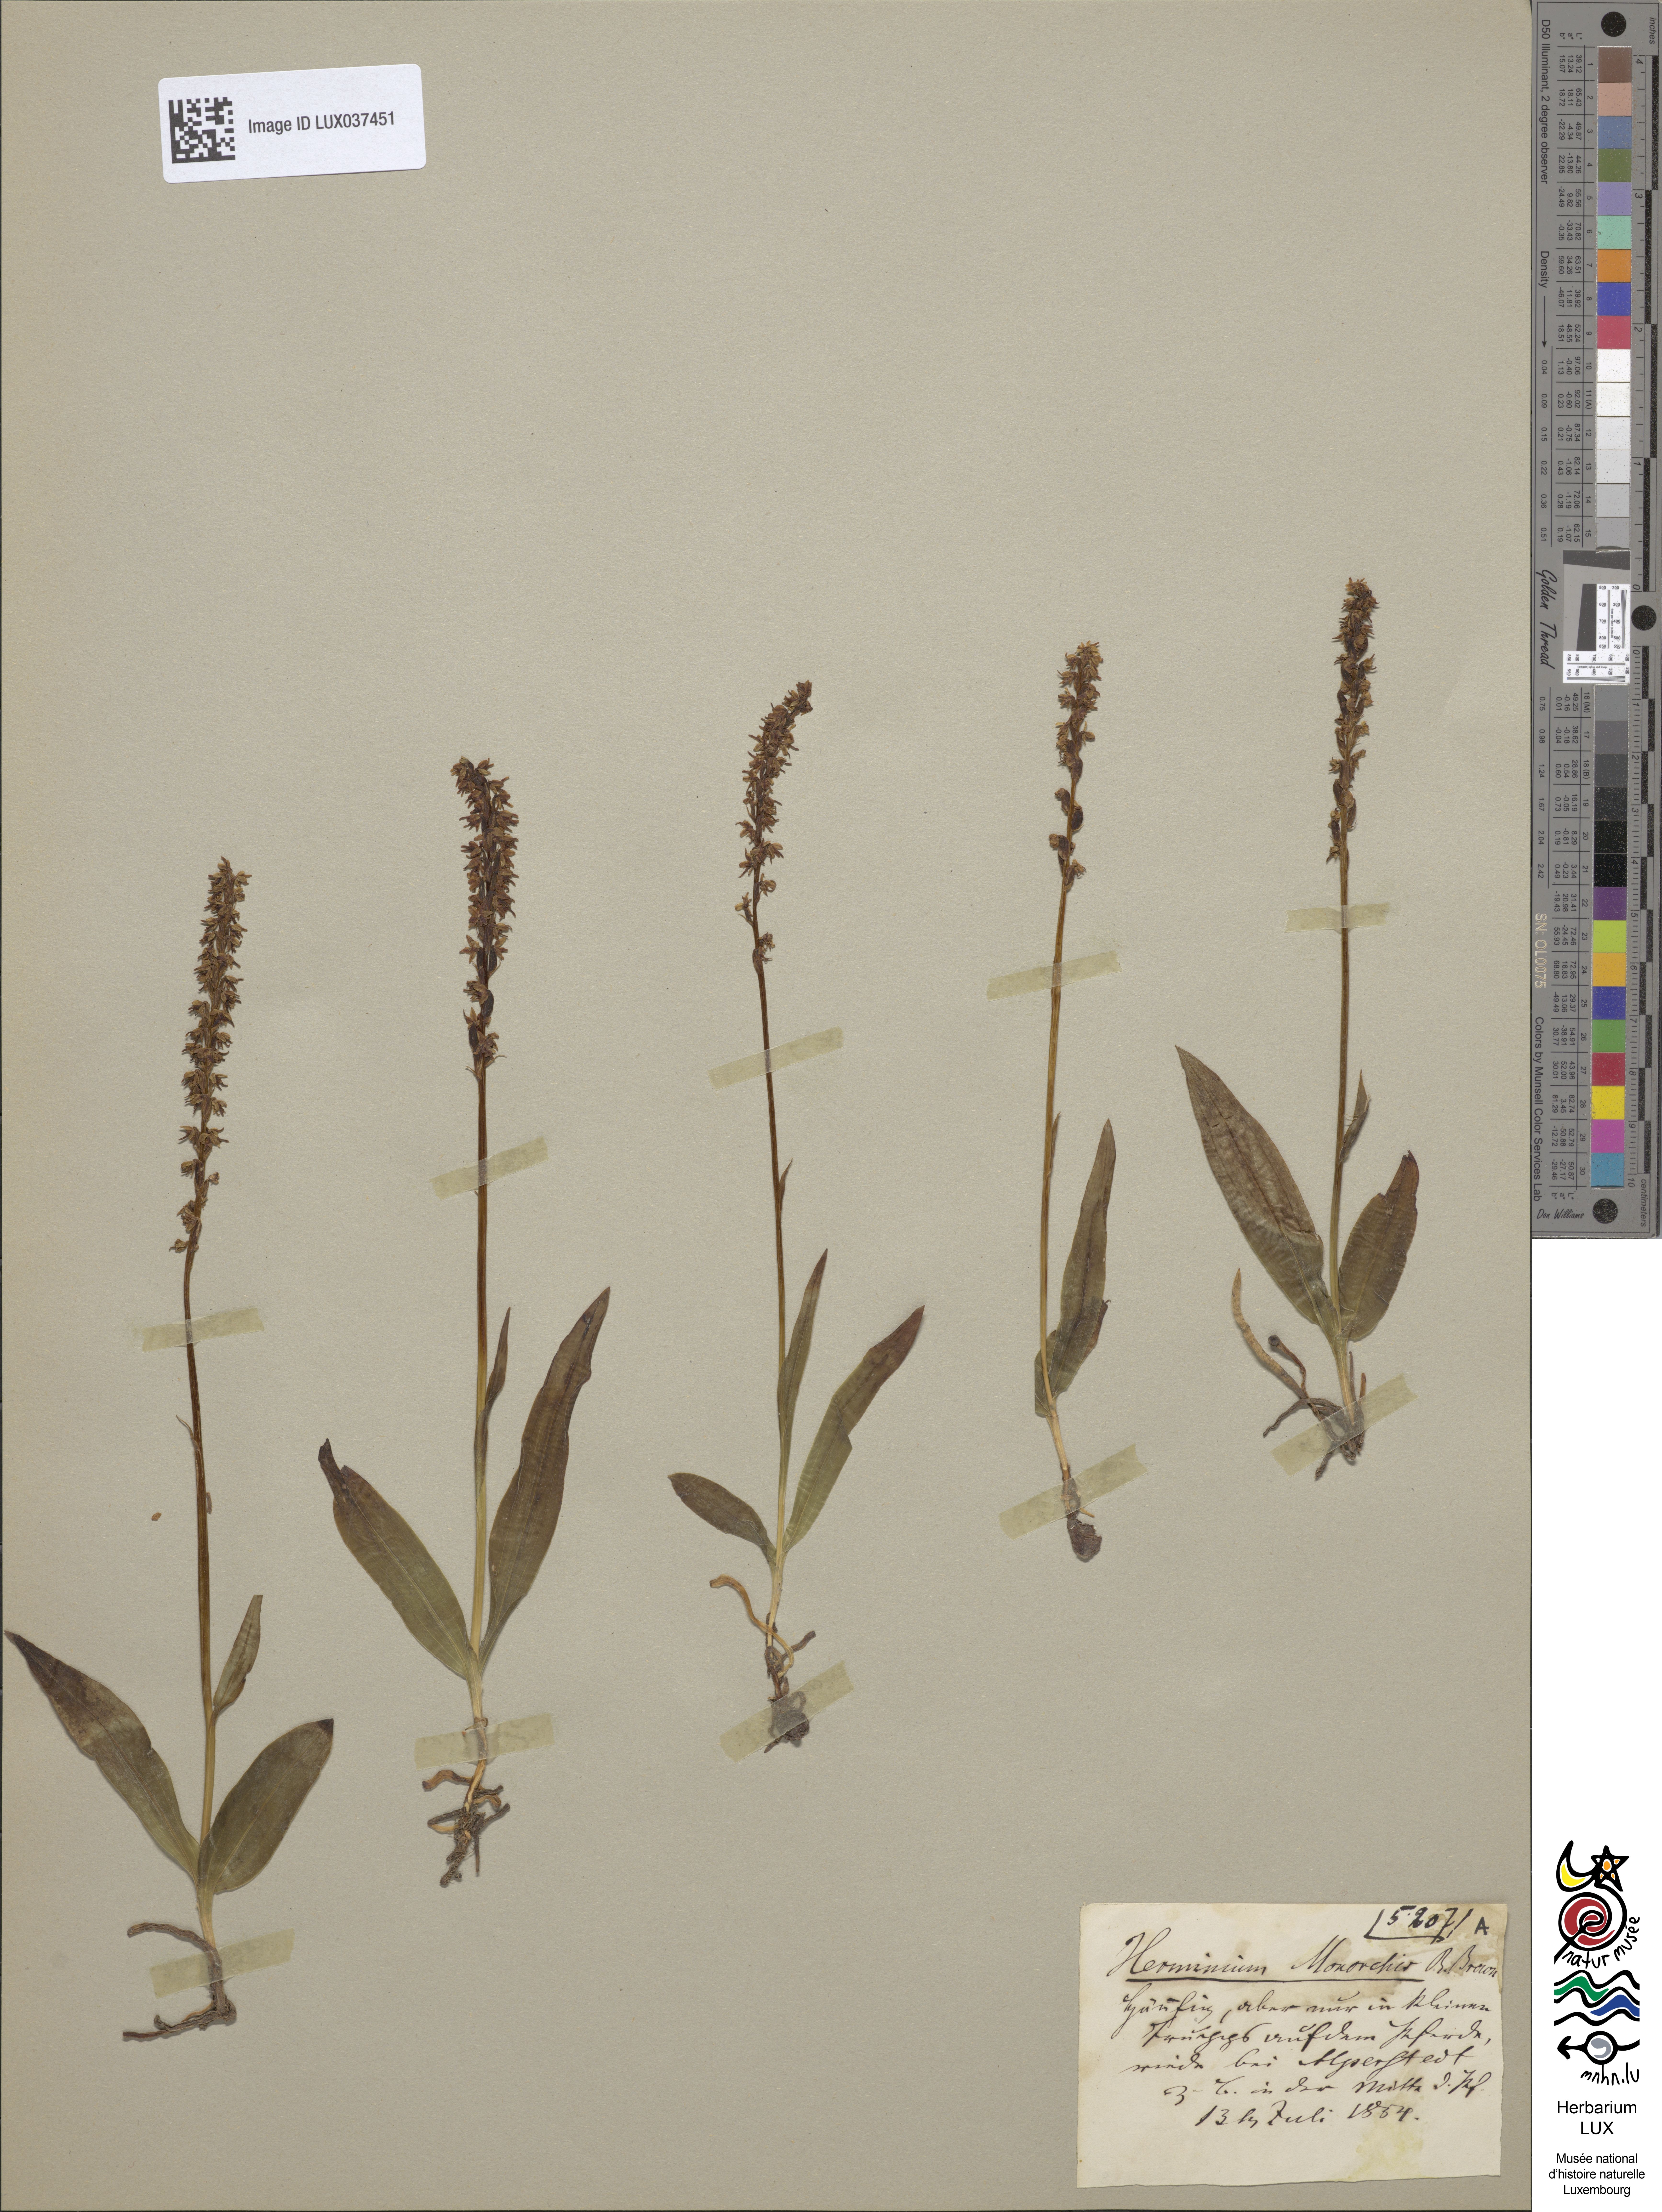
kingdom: Plantae
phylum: Tracheophyta
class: Liliopsida
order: Asparagales
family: Orchidaceae
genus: Herminium
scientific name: Herminium monorchis
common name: Musk orchid
